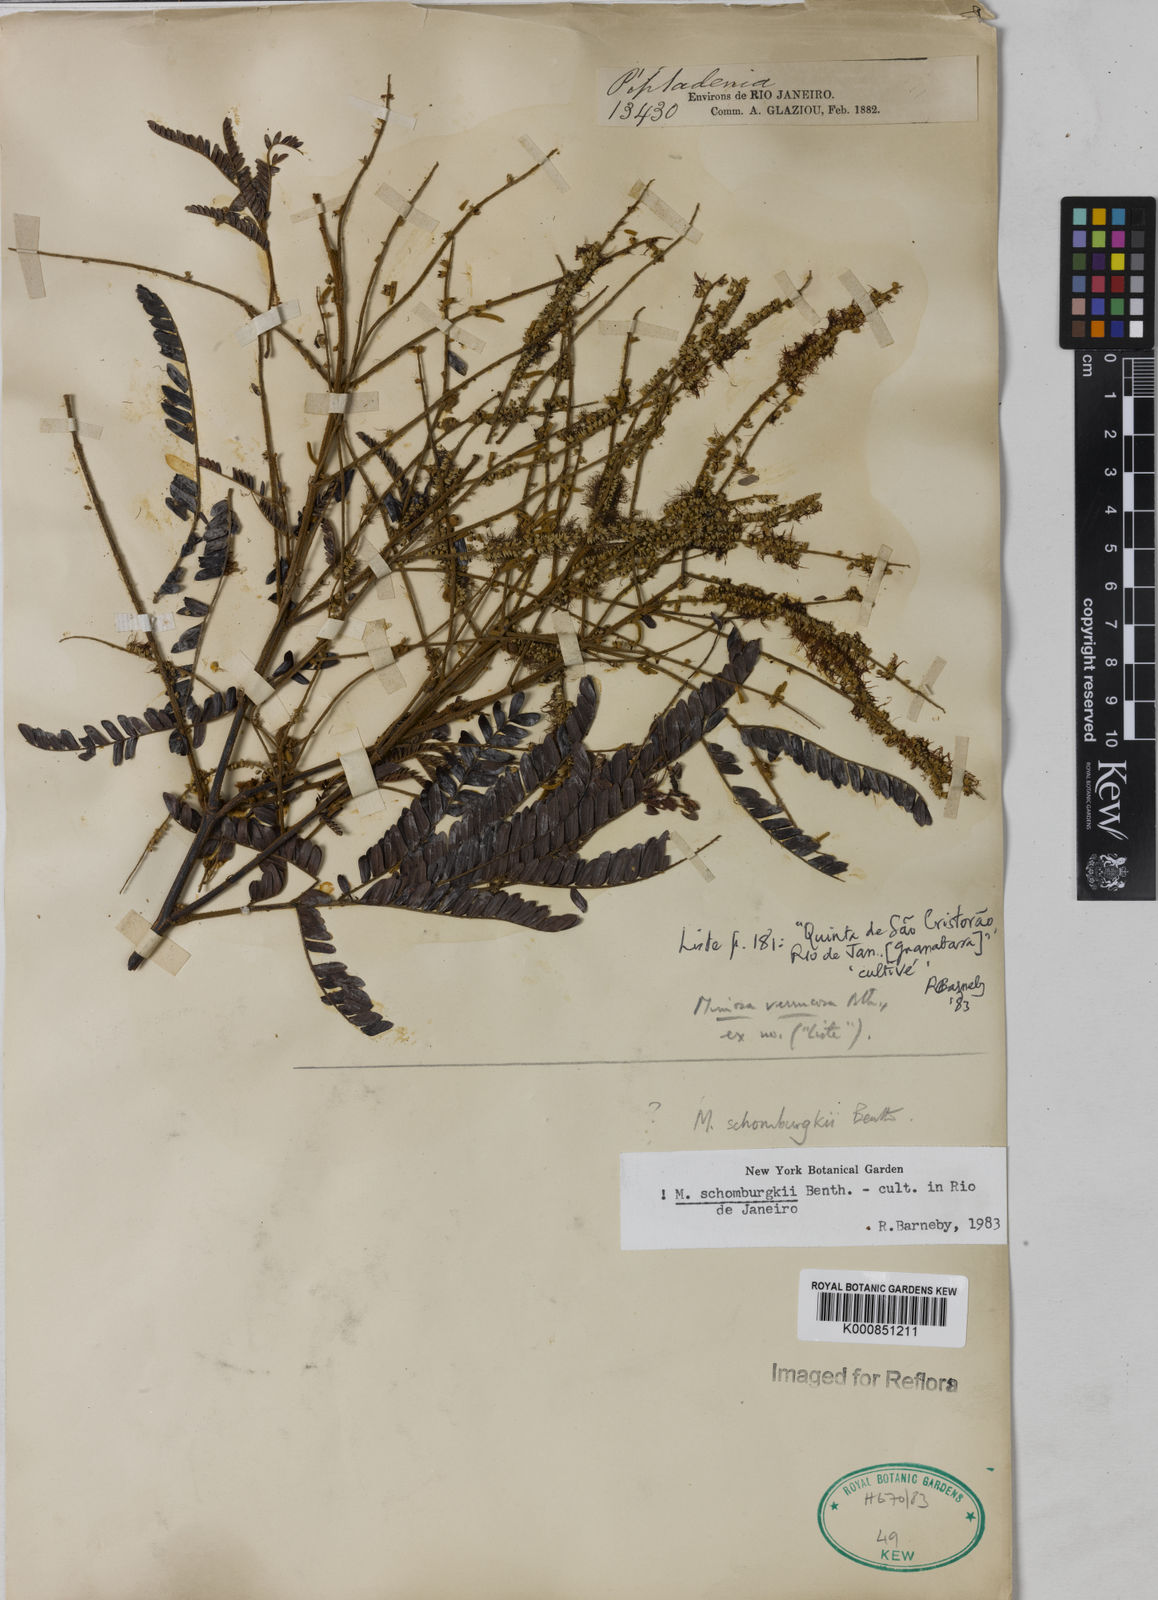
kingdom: Plantae
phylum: Tracheophyta
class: Magnoliopsida
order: Fabales
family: Fabaceae
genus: Mimosa
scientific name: Mimosa schomburgkii
